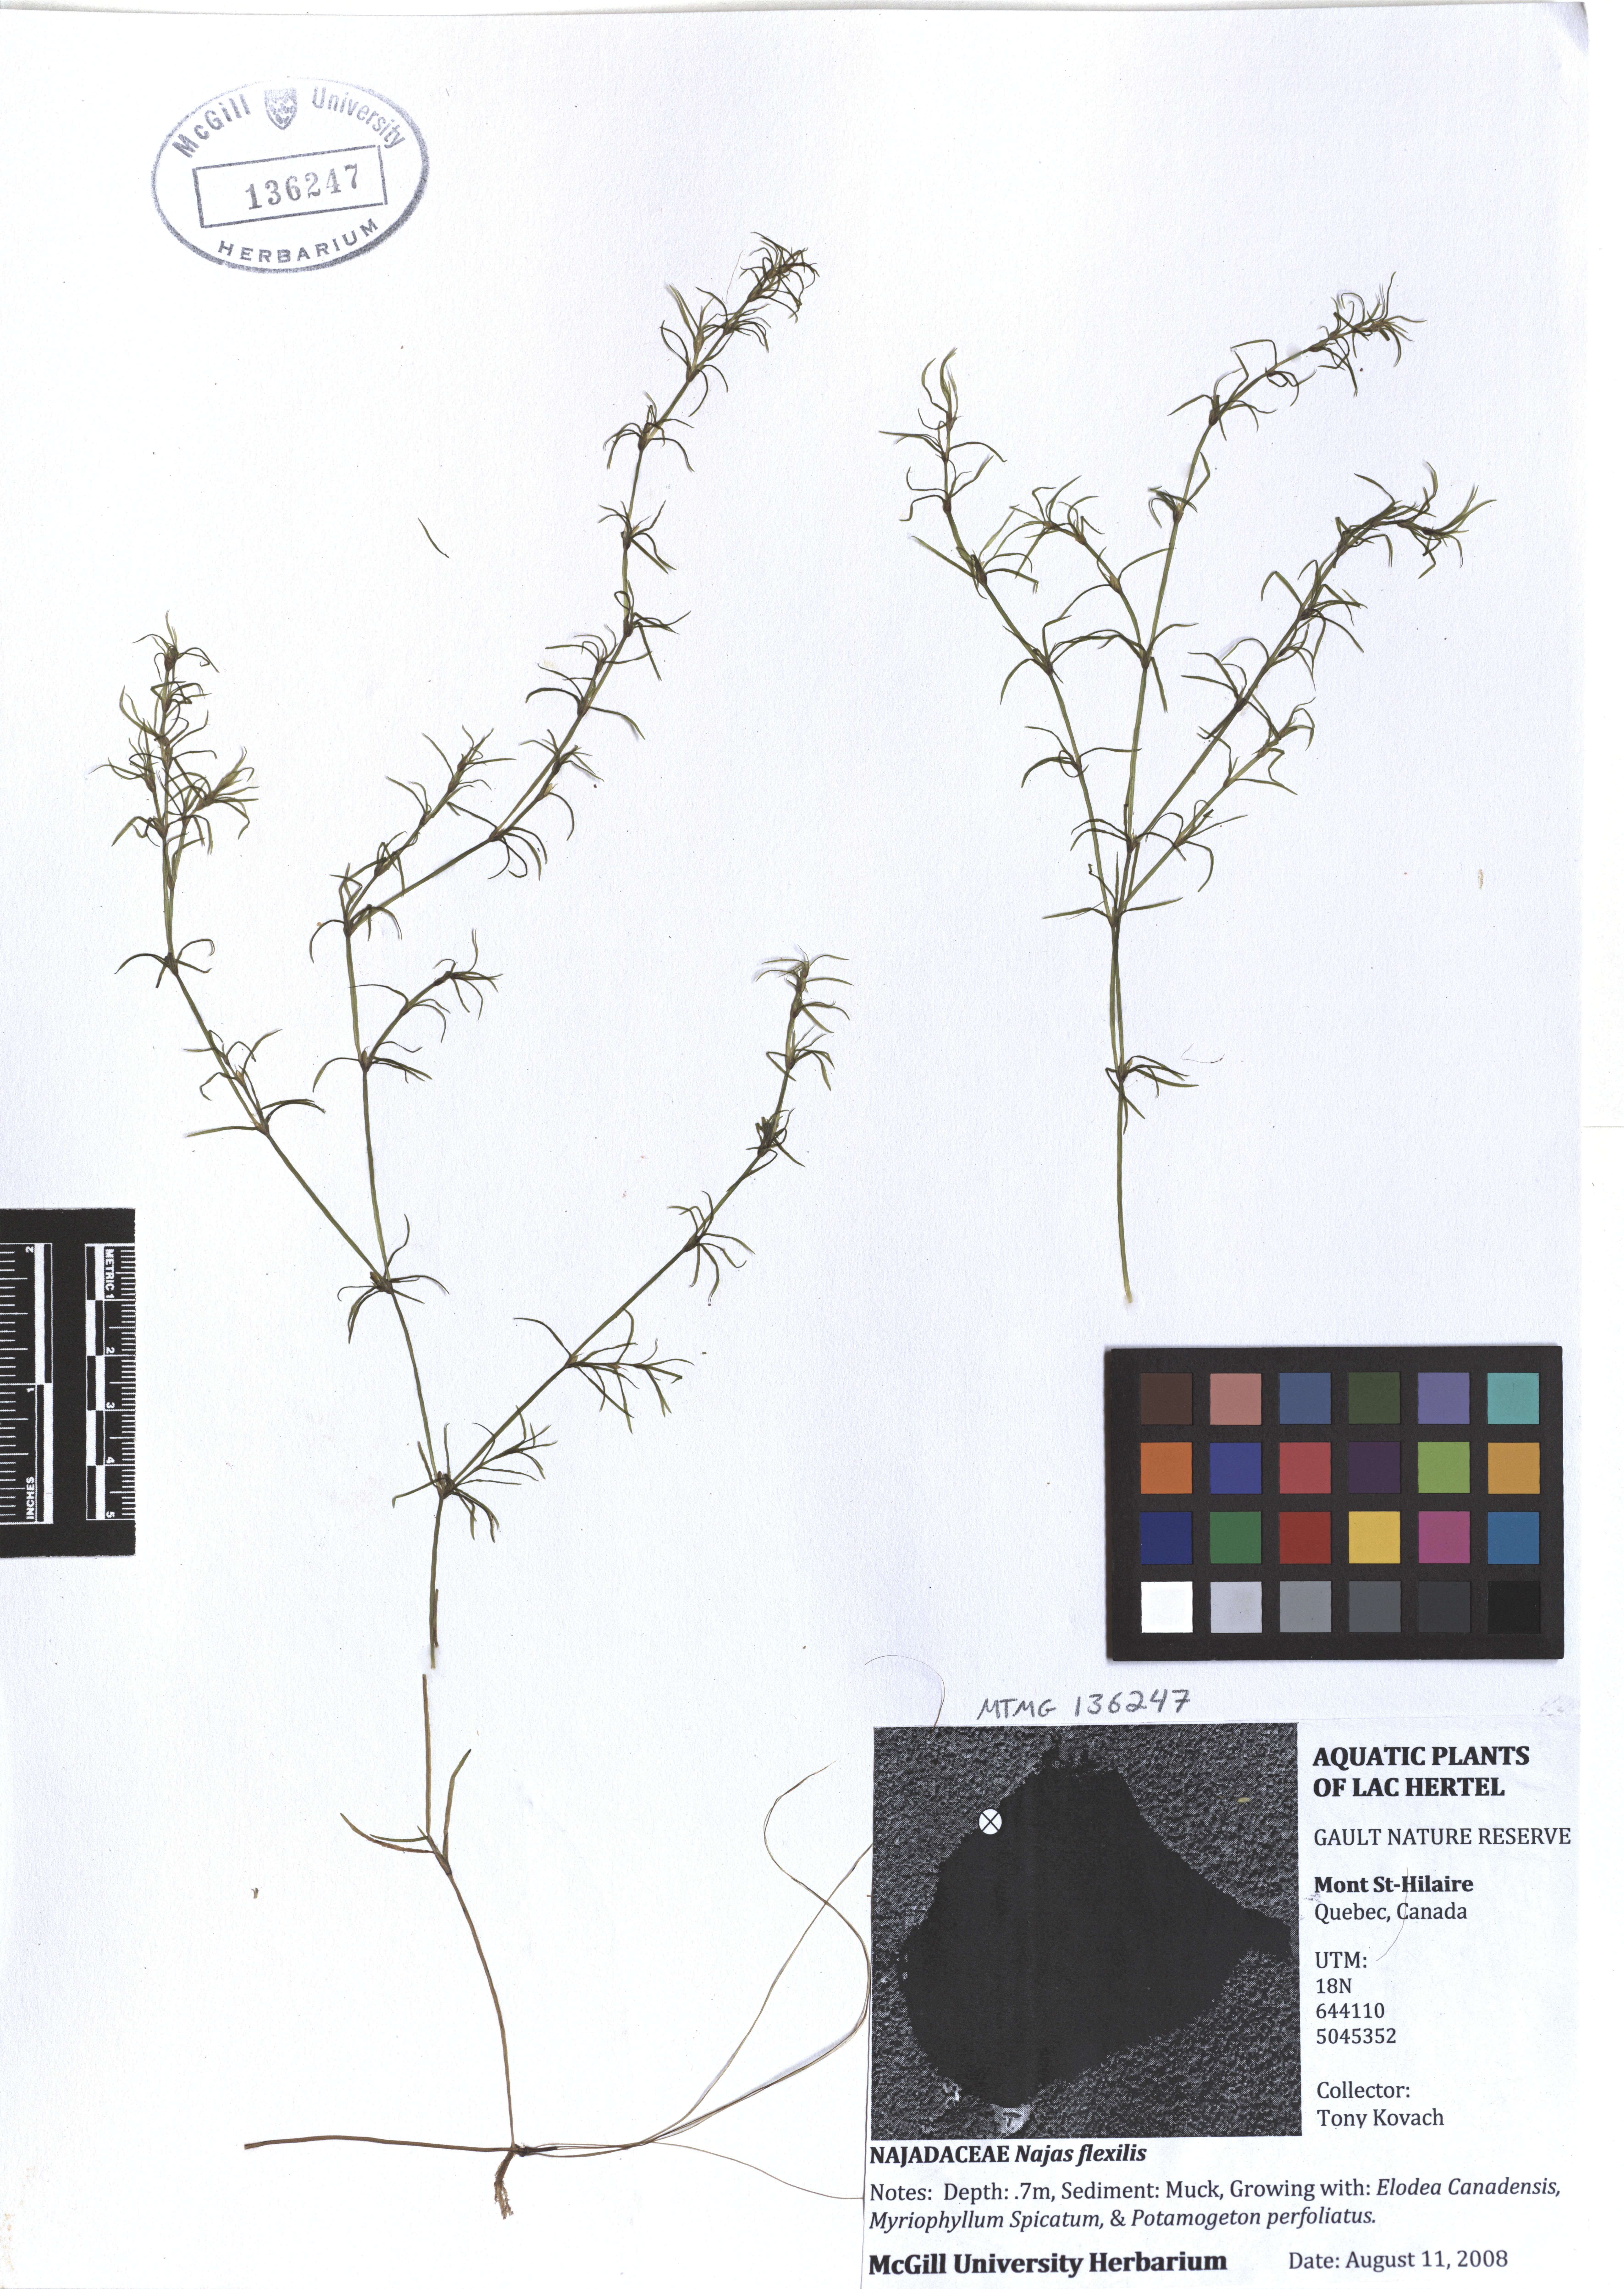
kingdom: Plantae
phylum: Tracheophyta
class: Liliopsida
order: Alismatales
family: Hydrocharitaceae
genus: Najas
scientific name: Najas guadalupensis
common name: Southern naiad
